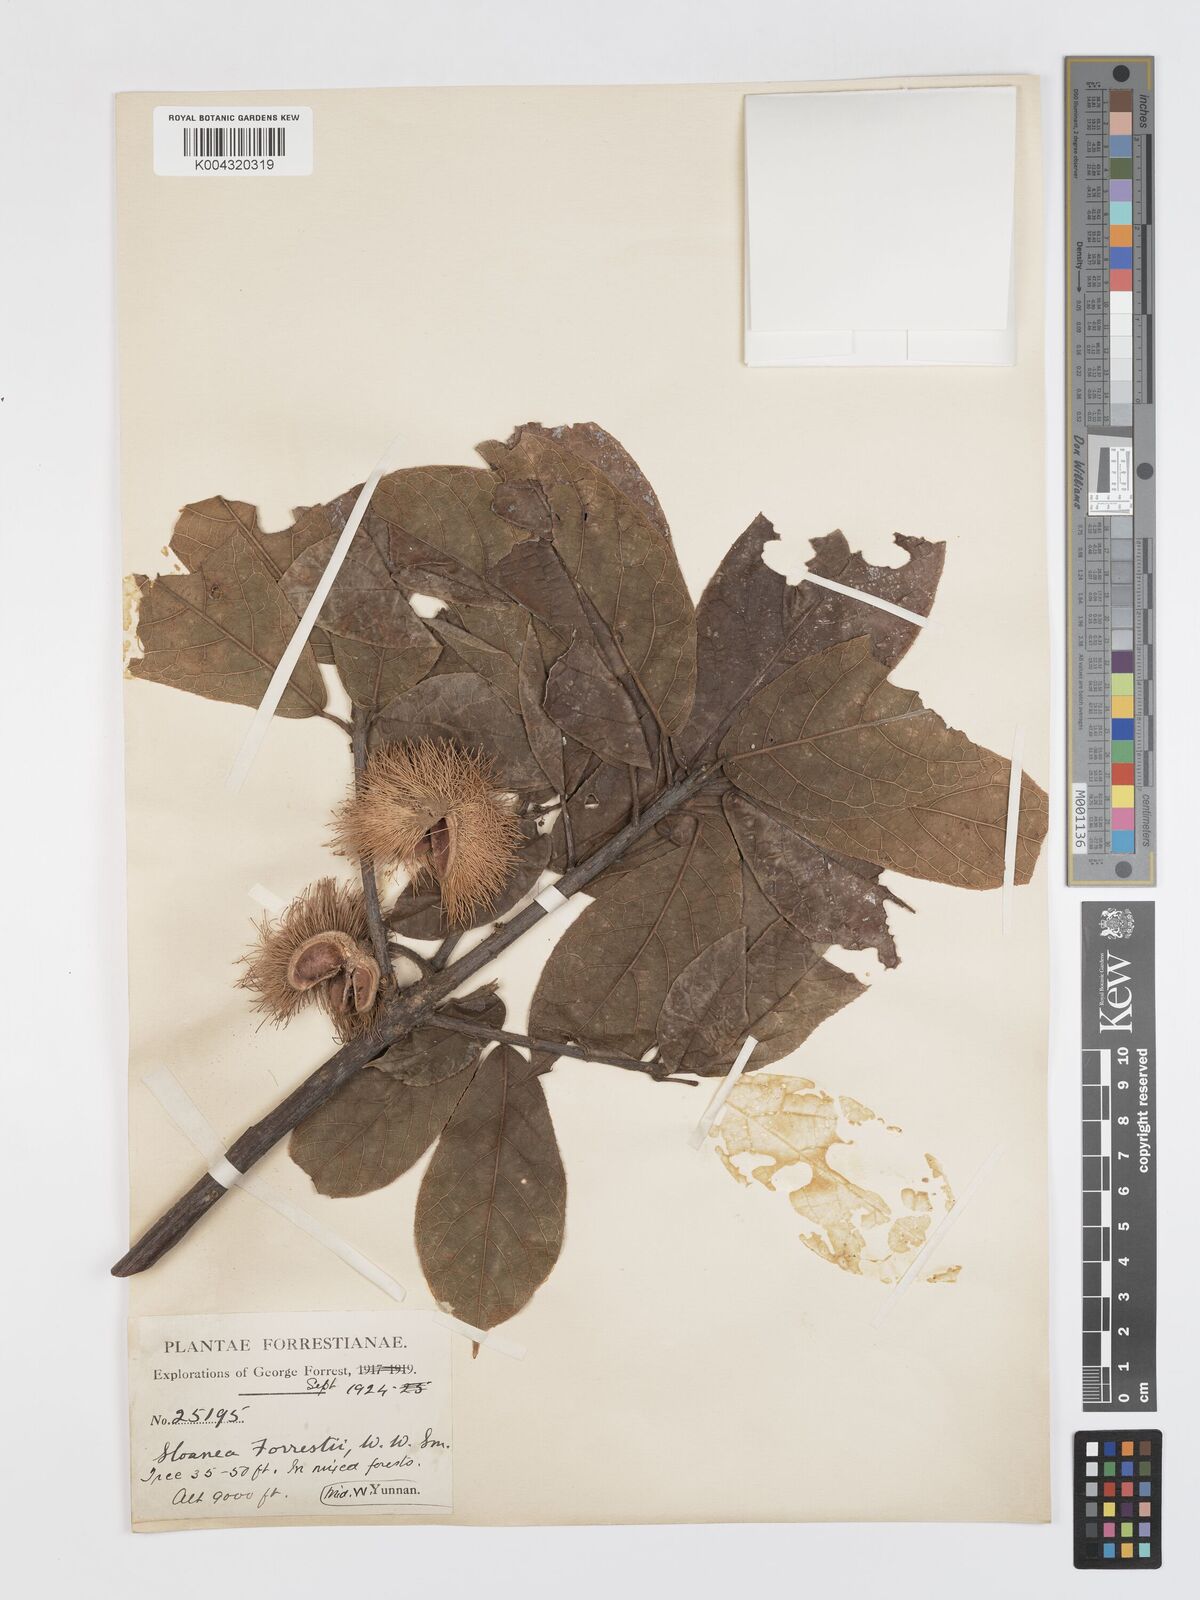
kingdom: Plantae
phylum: Tracheophyta
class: Magnoliopsida
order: Oxalidales
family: Elaeocarpaceae
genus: Sloanea
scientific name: Sloanea sterculiacea
